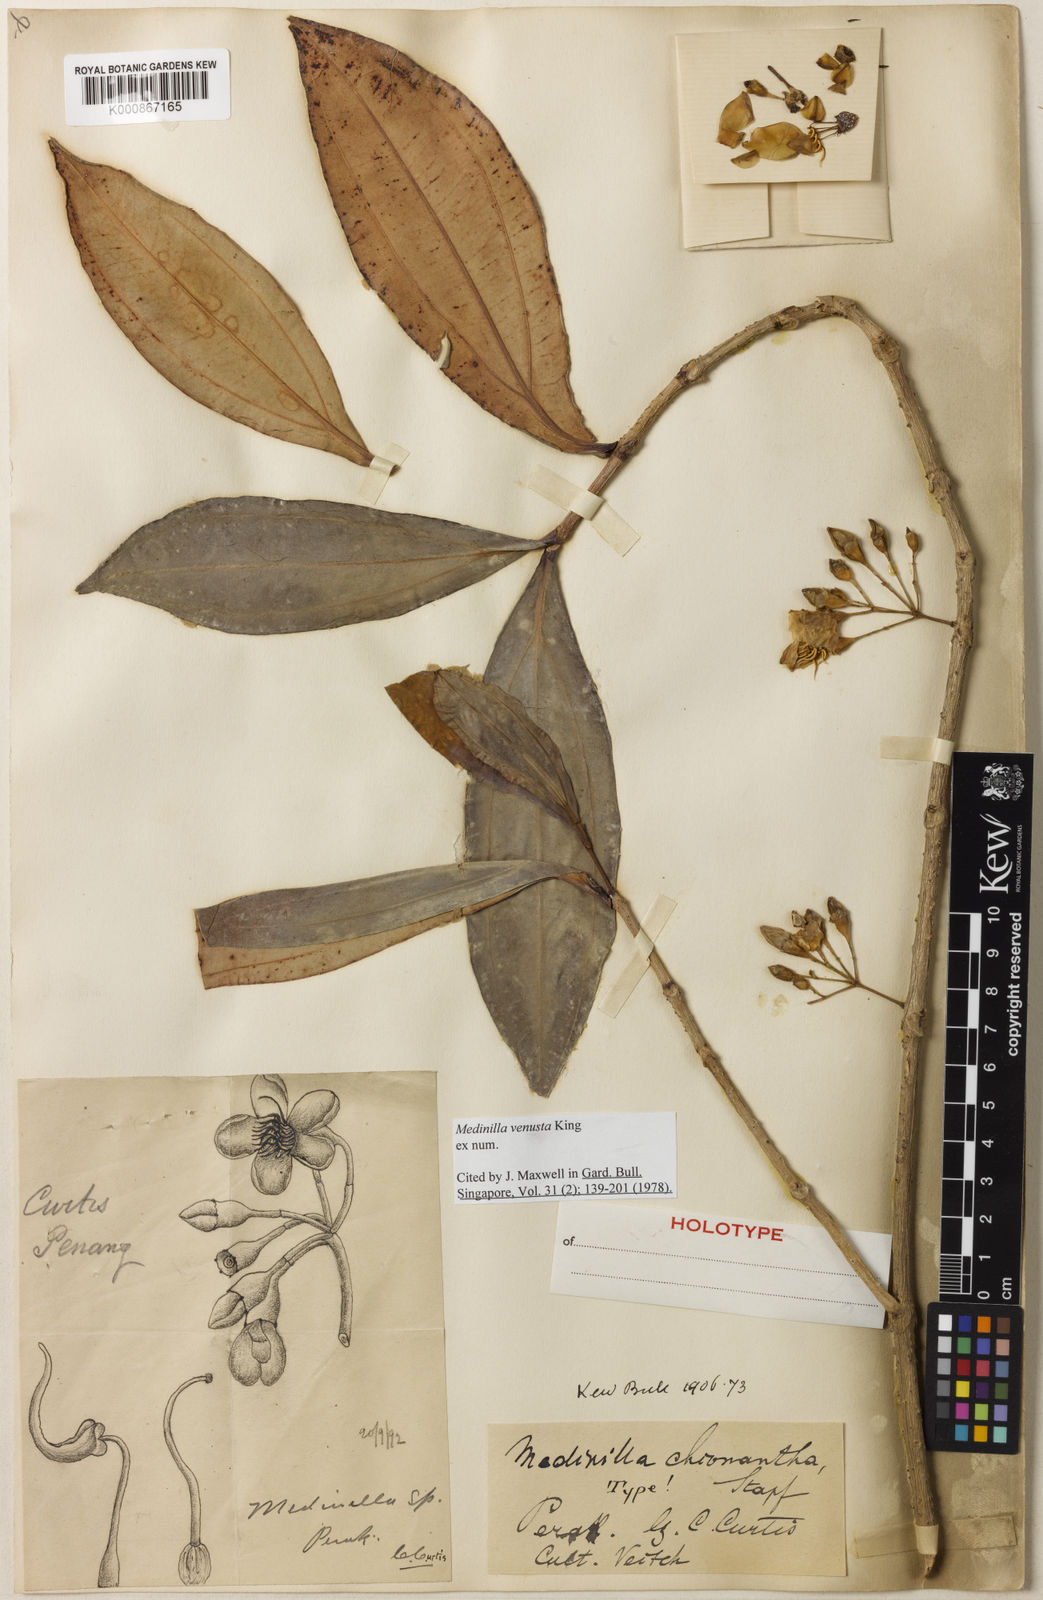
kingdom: Plantae
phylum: Tracheophyta
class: Magnoliopsida
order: Myrtales
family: Melastomataceae
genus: Medinilla
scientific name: Medinilla venusta
